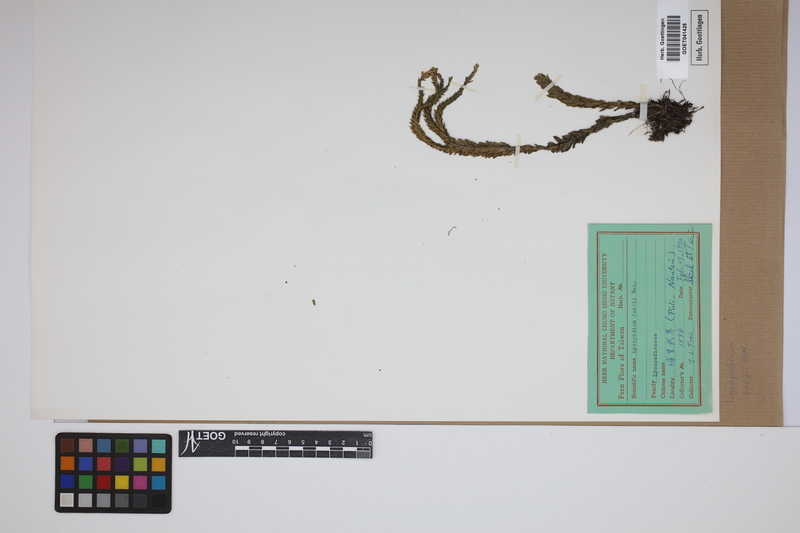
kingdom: Plantae
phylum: Tracheophyta
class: Lycopodiopsida
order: Lycopodiales
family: Lycopodiaceae
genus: Phlegmariurus
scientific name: Phlegmariurus fordii
